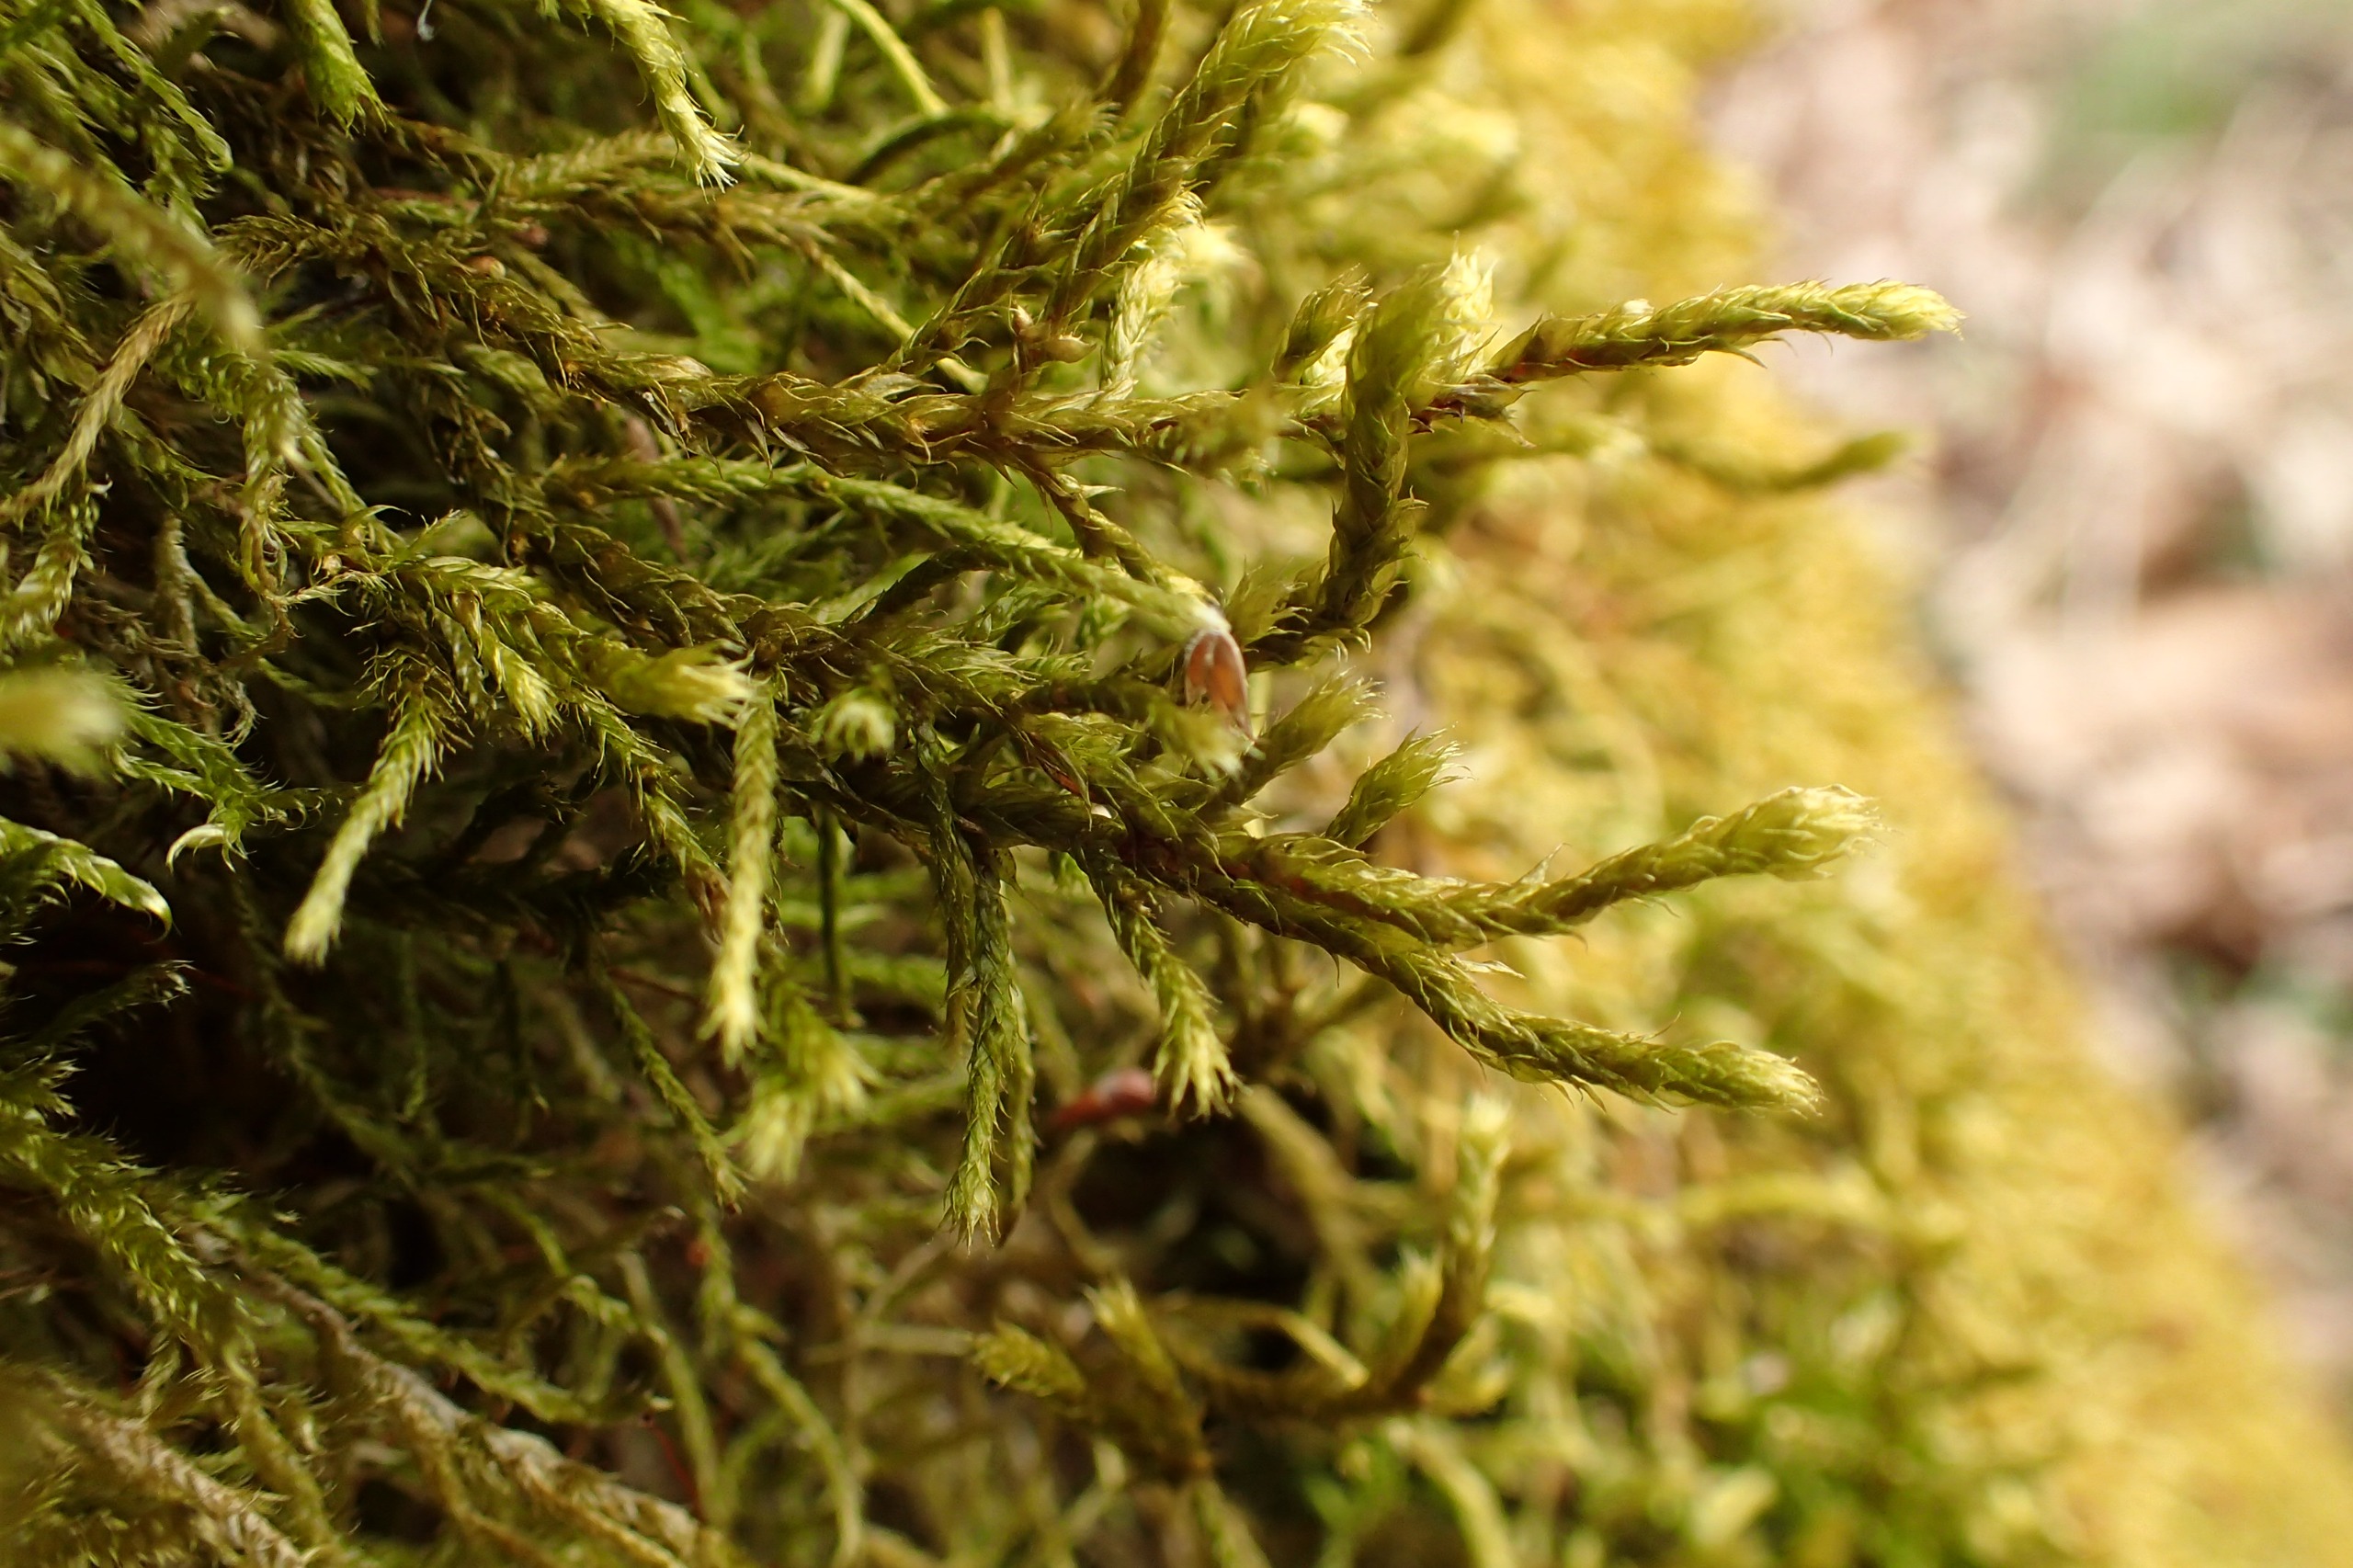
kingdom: Plantae
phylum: Bryophyta
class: Bryopsida
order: Hypnales
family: Antitrichiaceae
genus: Antitrichia
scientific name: Antitrichia curtipendula
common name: Åben krogtand
